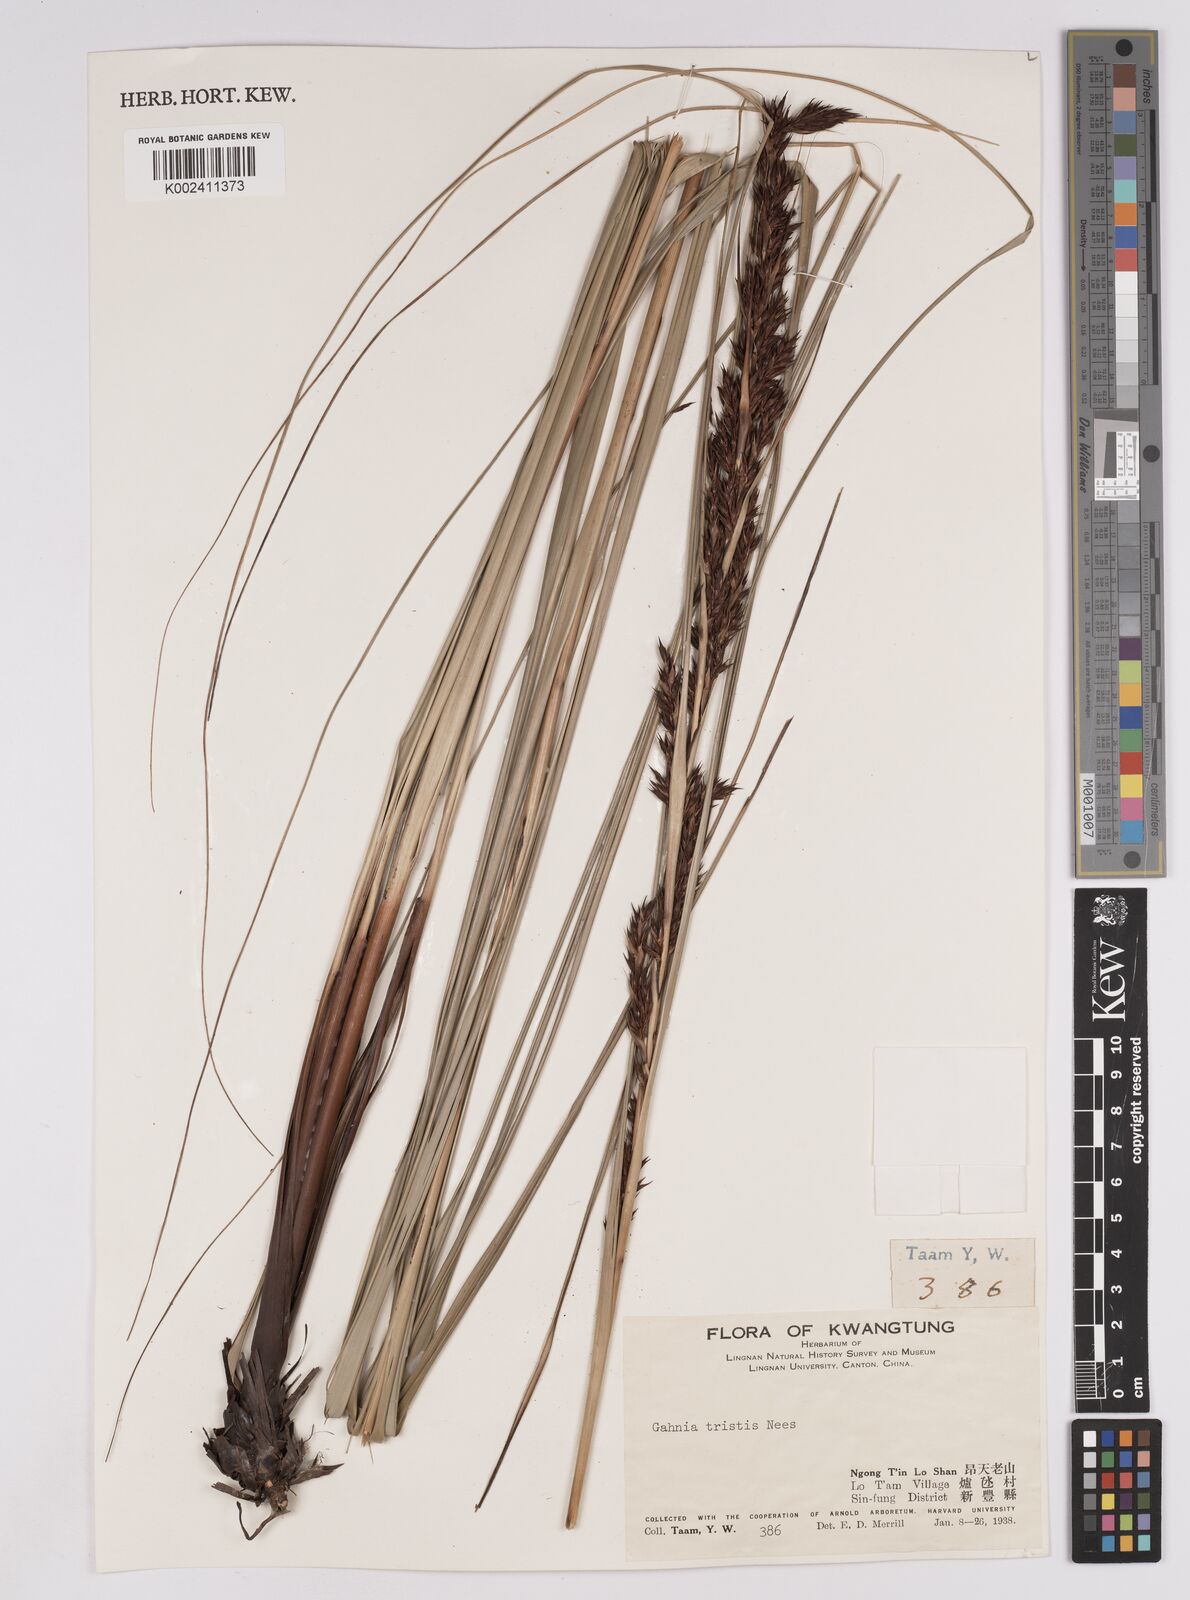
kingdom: Plantae
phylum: Tracheophyta
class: Liliopsida
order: Poales
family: Cyperaceae
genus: Gahnia
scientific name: Gahnia tristis
